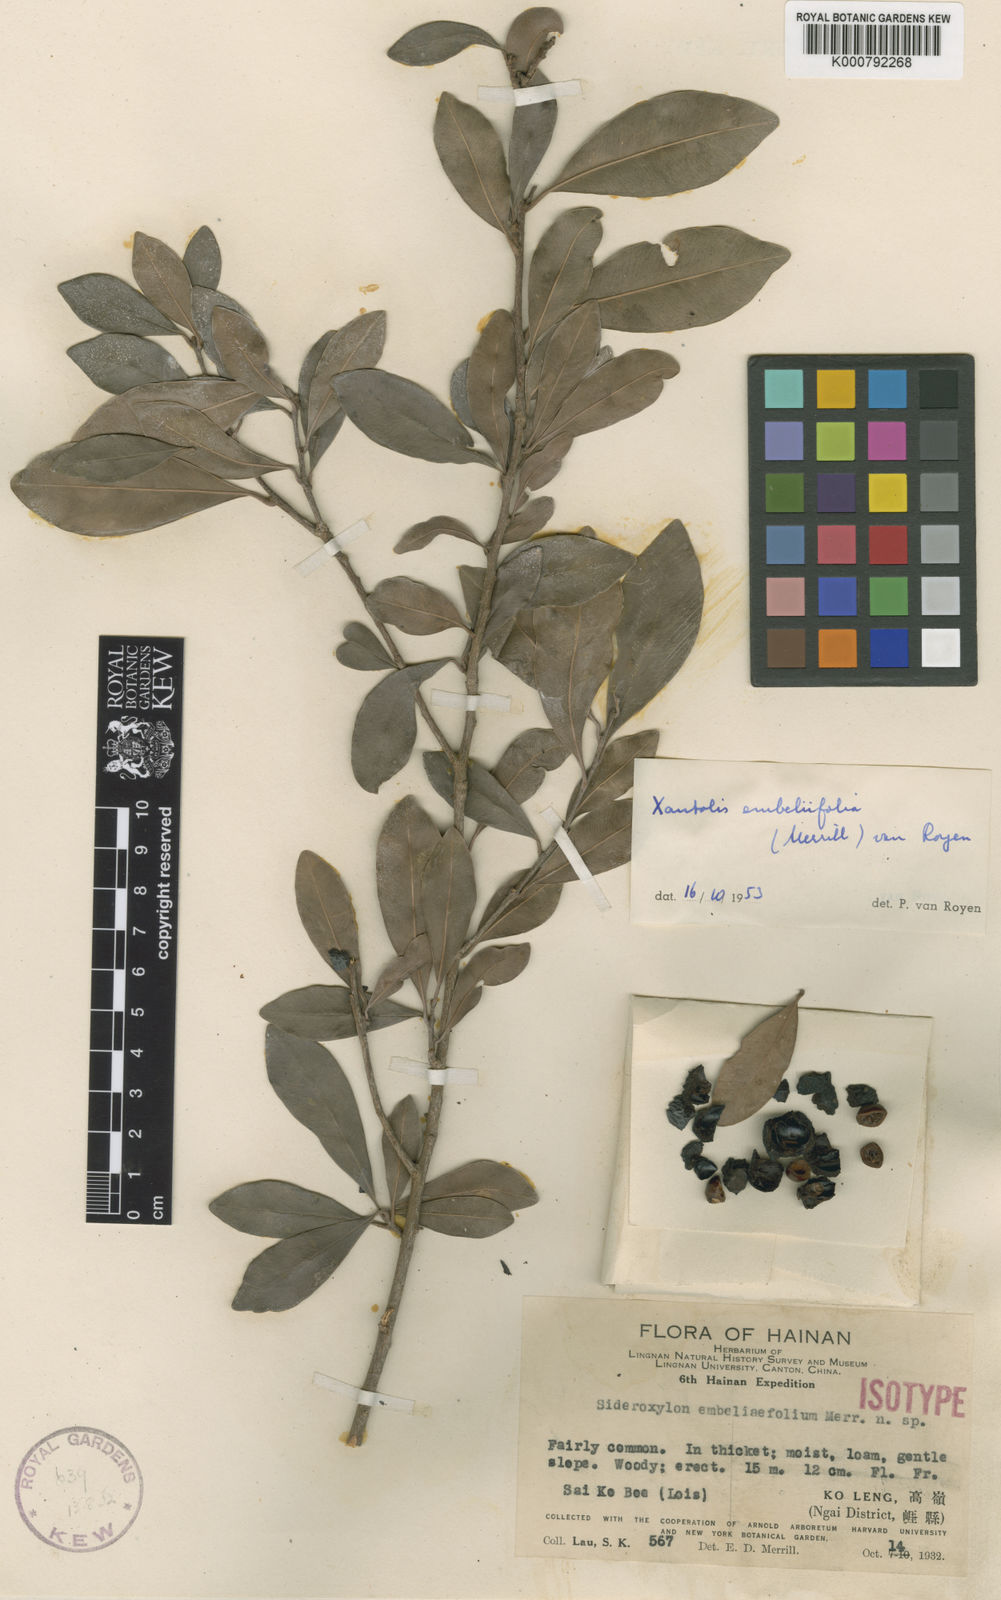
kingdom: Plantae
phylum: Tracheophyta
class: Magnoliopsida
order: Ericales
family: Sapotaceae
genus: Xantolis
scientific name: Xantolis longispinosa
